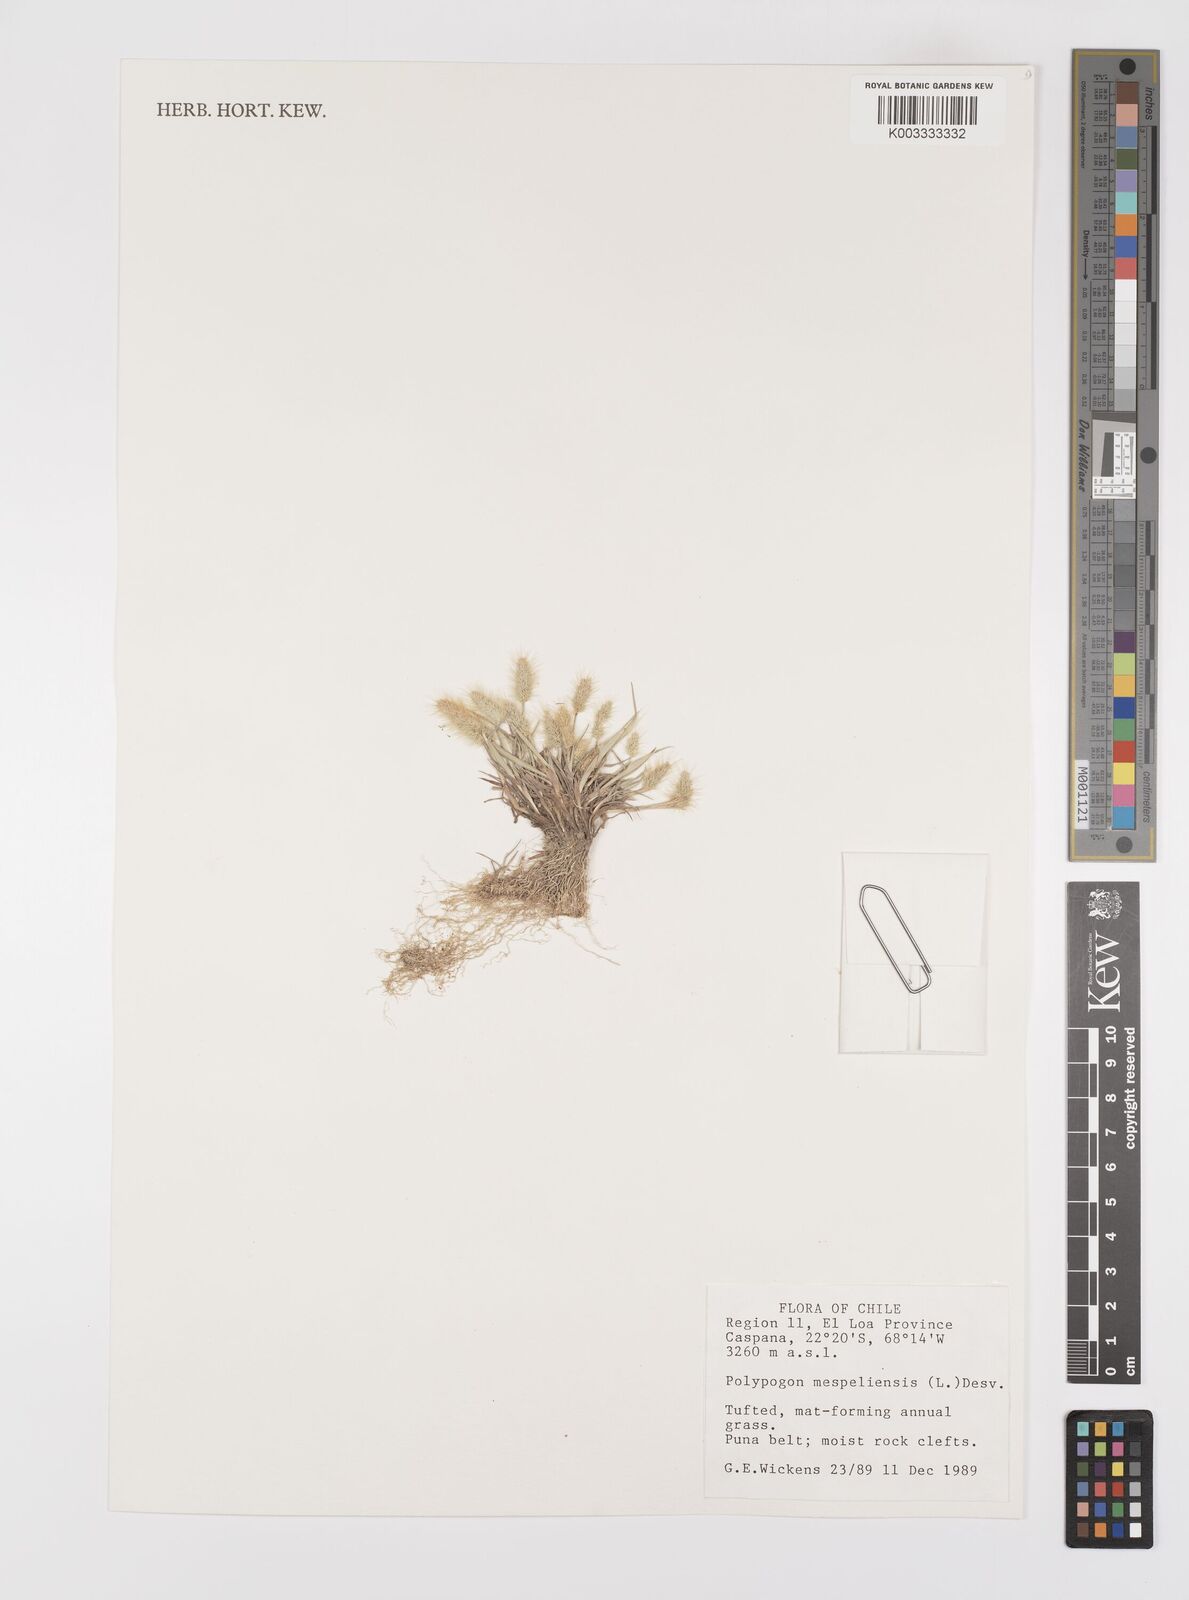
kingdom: Plantae
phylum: Tracheophyta
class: Liliopsida
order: Poales
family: Poaceae
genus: Polypogon
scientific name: Polypogon monspeliensis
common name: Annual rabbitsfoot grass
